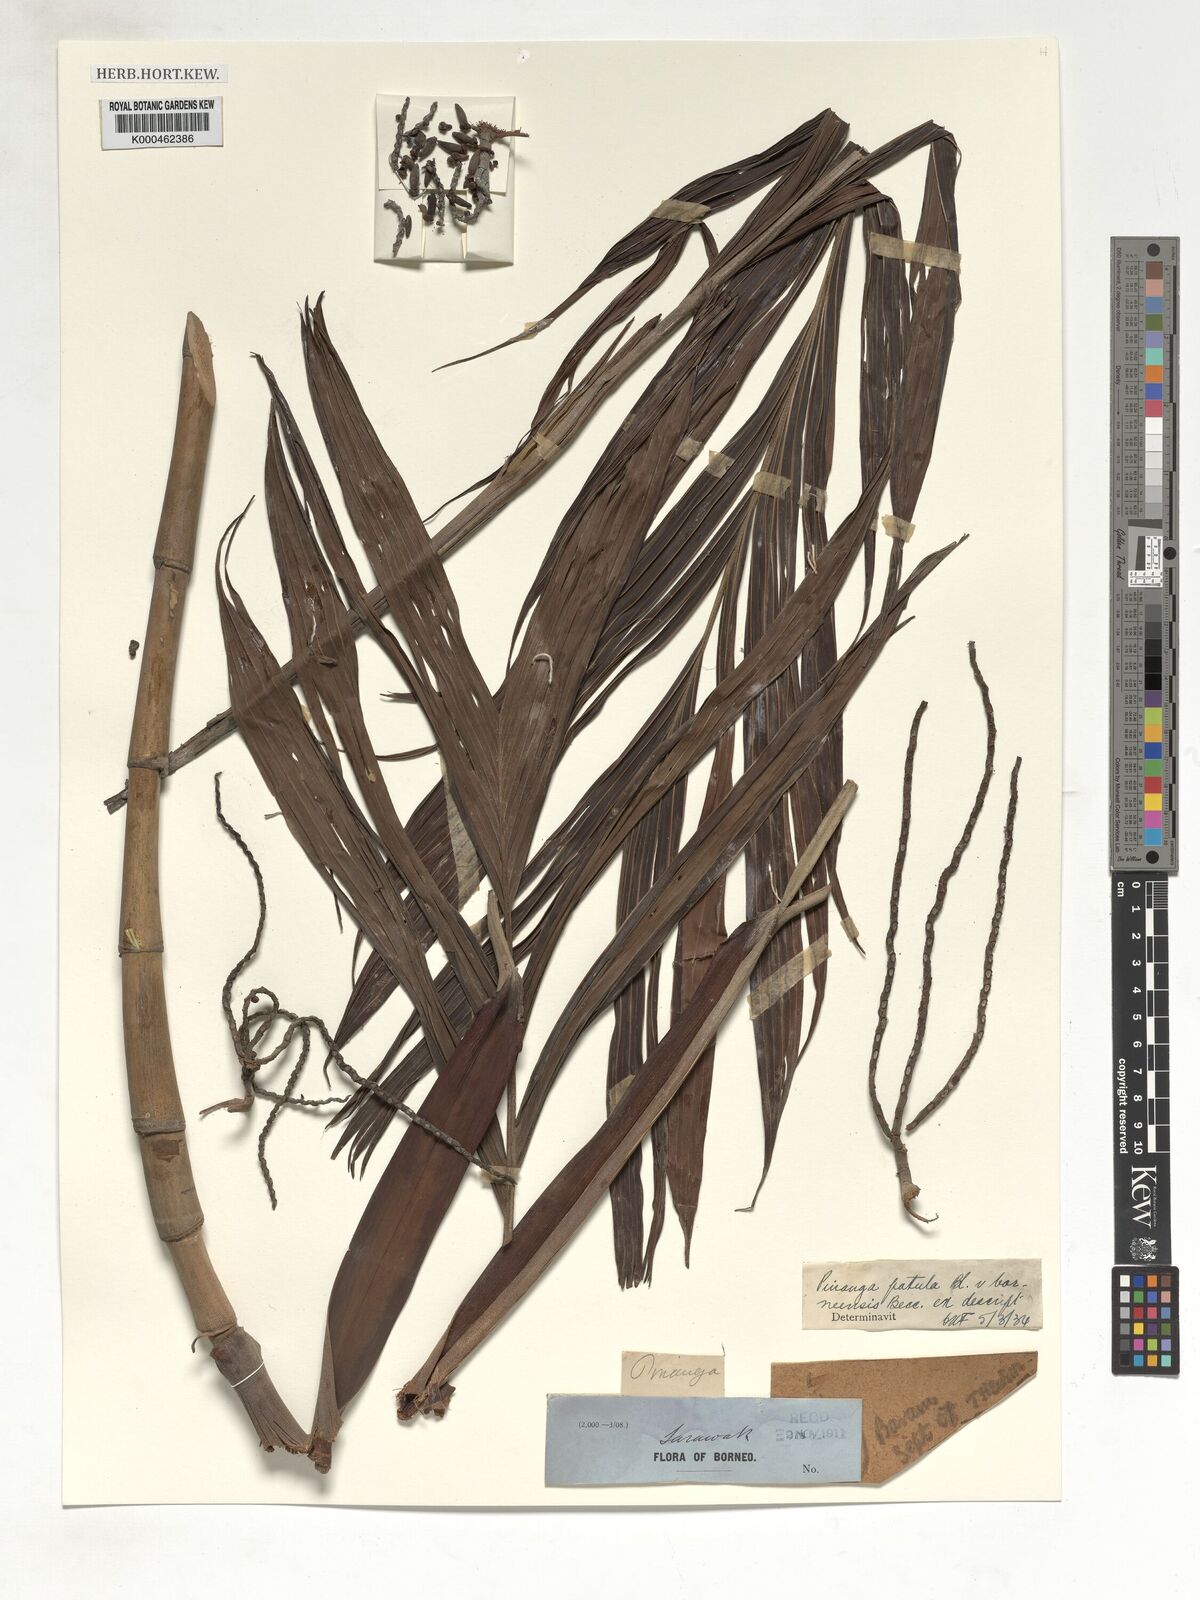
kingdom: Plantae
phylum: Tracheophyta
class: Liliopsida
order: Arecales
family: Arecaceae
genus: Pinanga
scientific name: Pinanga patula
